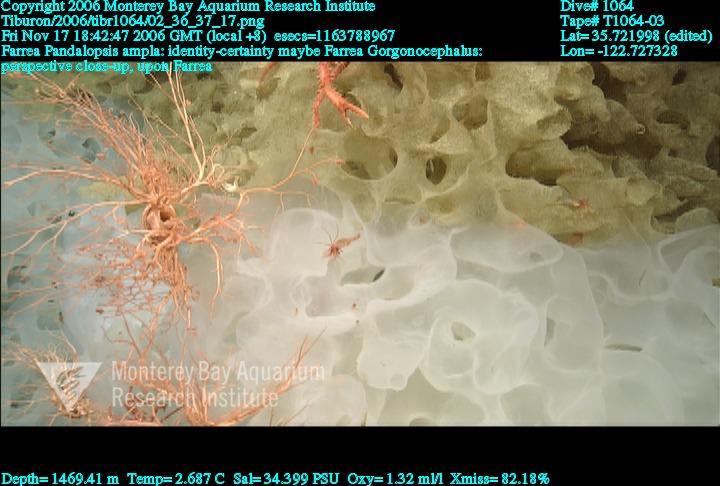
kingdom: Animalia
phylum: Porifera
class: Hexactinellida
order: Sceptrulophora
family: Farreidae
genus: Farrea
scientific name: Farrea
